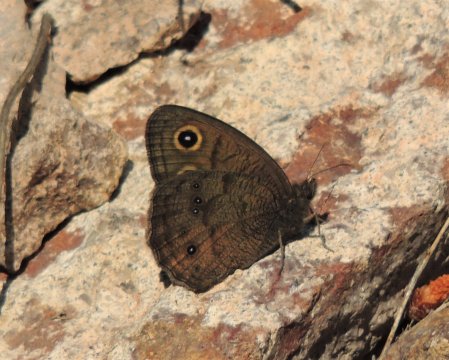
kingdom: Animalia
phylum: Arthropoda
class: Insecta
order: Lepidoptera
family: Nymphalidae
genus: Cercyonis
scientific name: Cercyonis pegala
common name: Common Wood-Nymph
